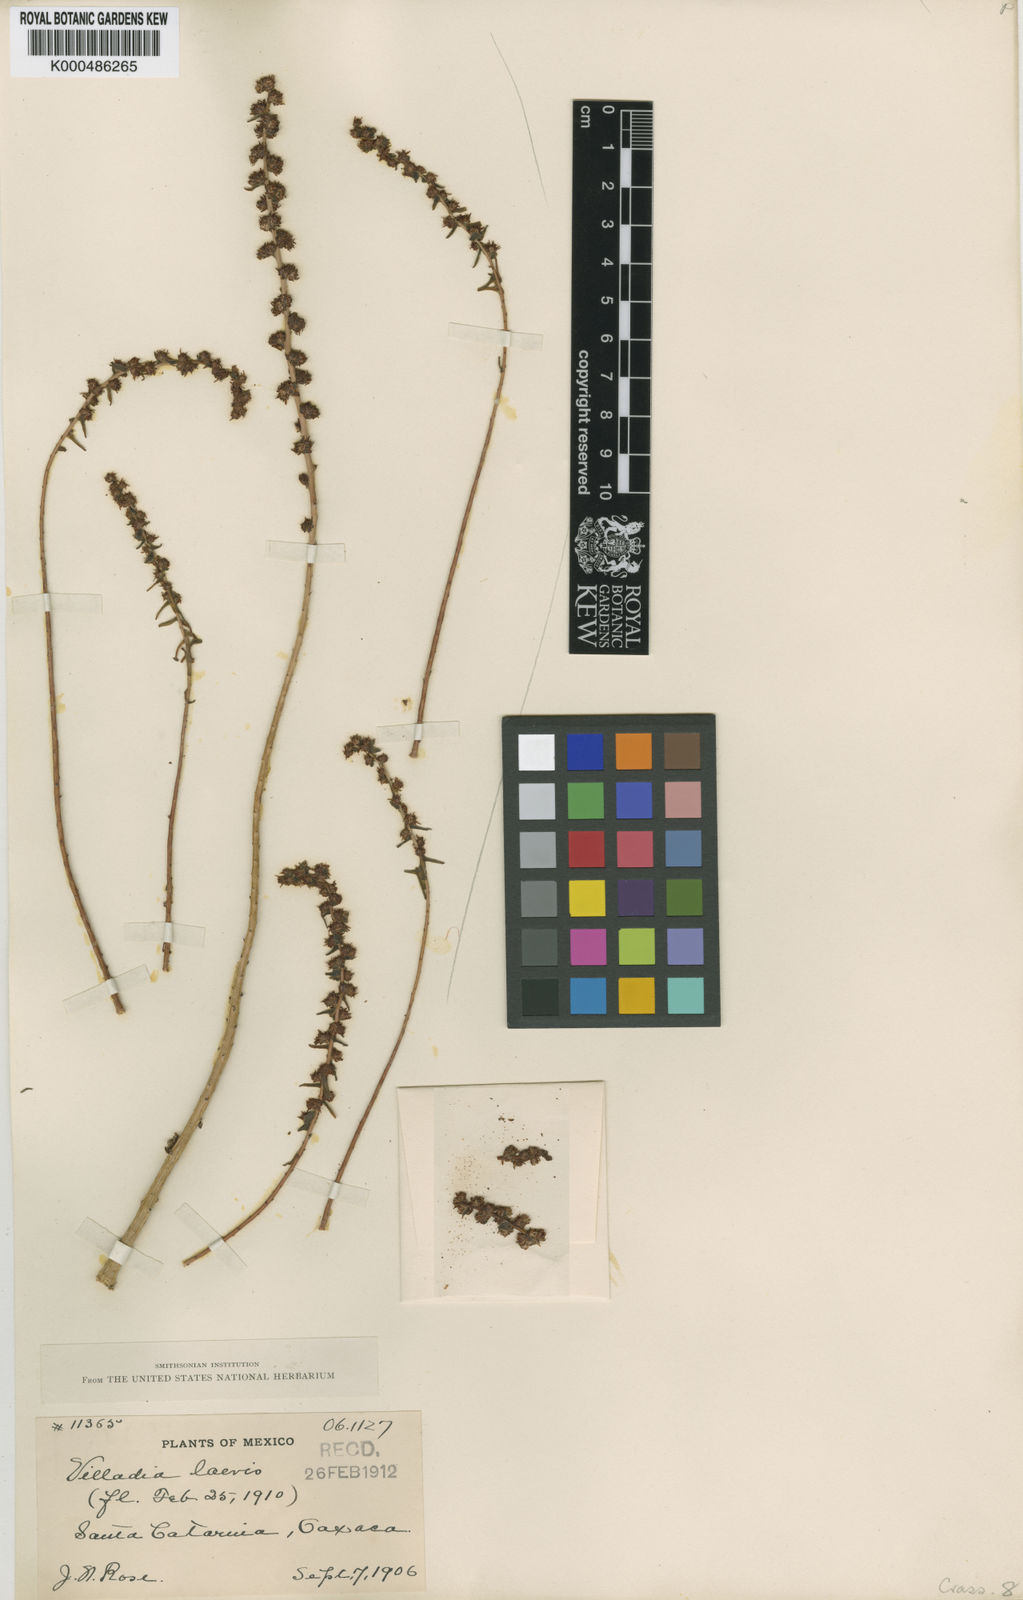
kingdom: Plantae
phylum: Tracheophyta
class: Magnoliopsida
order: Saxifragales
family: Crassulaceae
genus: Villadia
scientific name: Villadia guatemalensis
